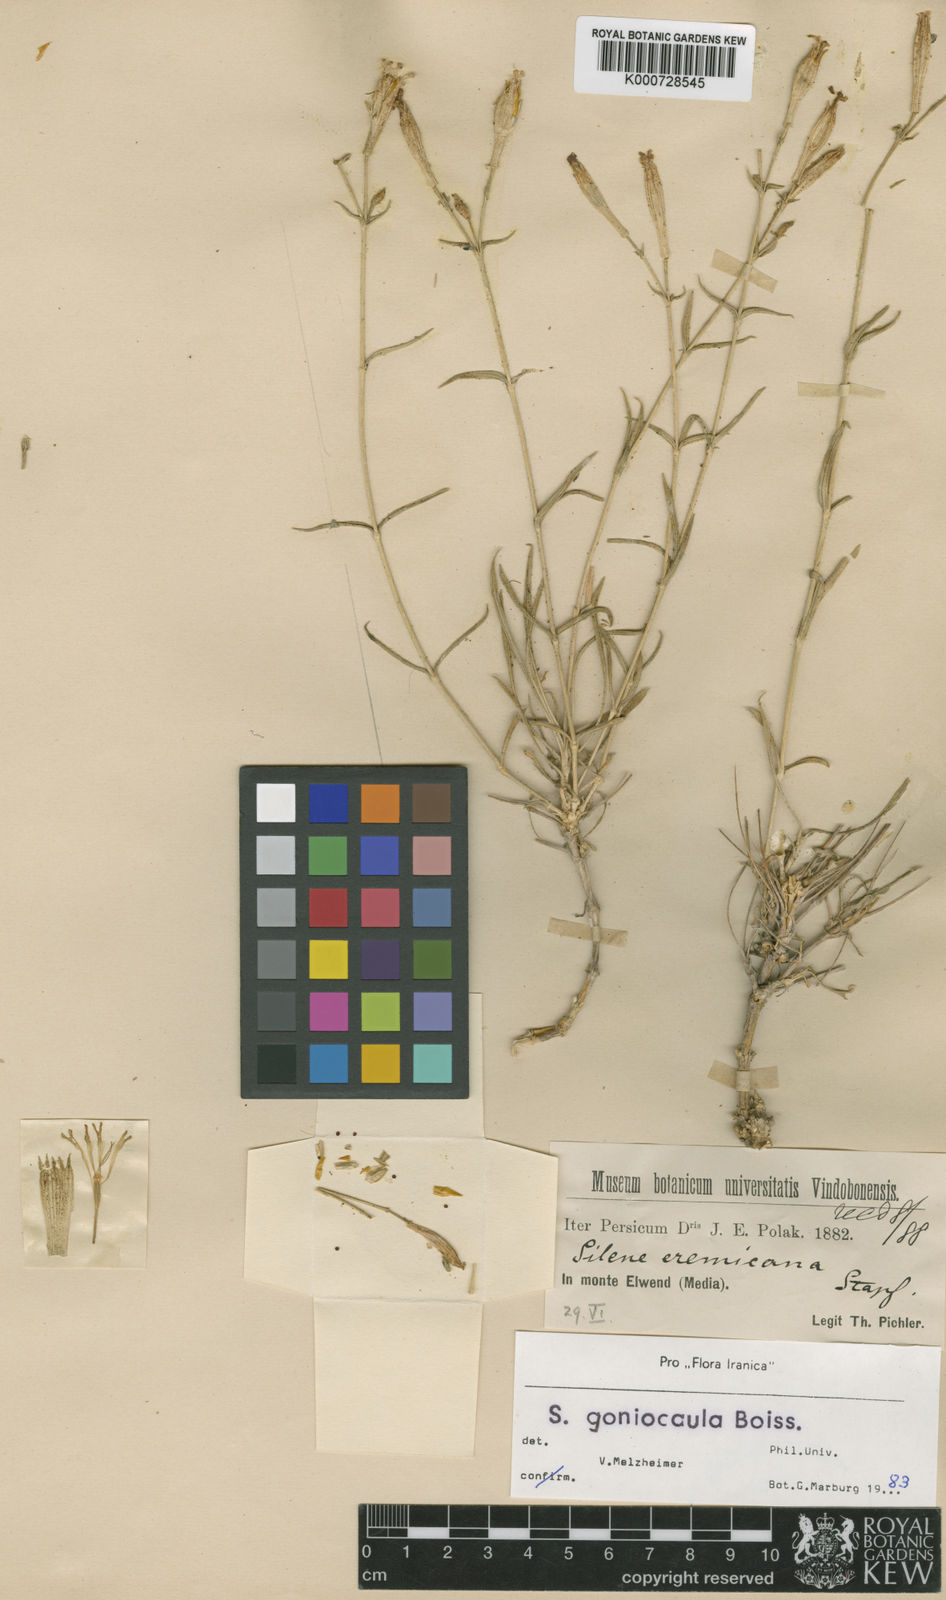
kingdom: Plantae
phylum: Tracheophyta
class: Magnoliopsida
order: Caryophyllales
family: Caryophyllaceae
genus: Silene
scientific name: Silene goniocaula
